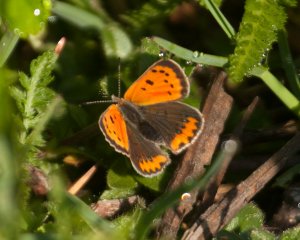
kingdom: Animalia
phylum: Arthropoda
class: Insecta
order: Lepidoptera
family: Lycaenidae
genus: Lycaena
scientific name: Lycaena phlaeas
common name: American Copper
